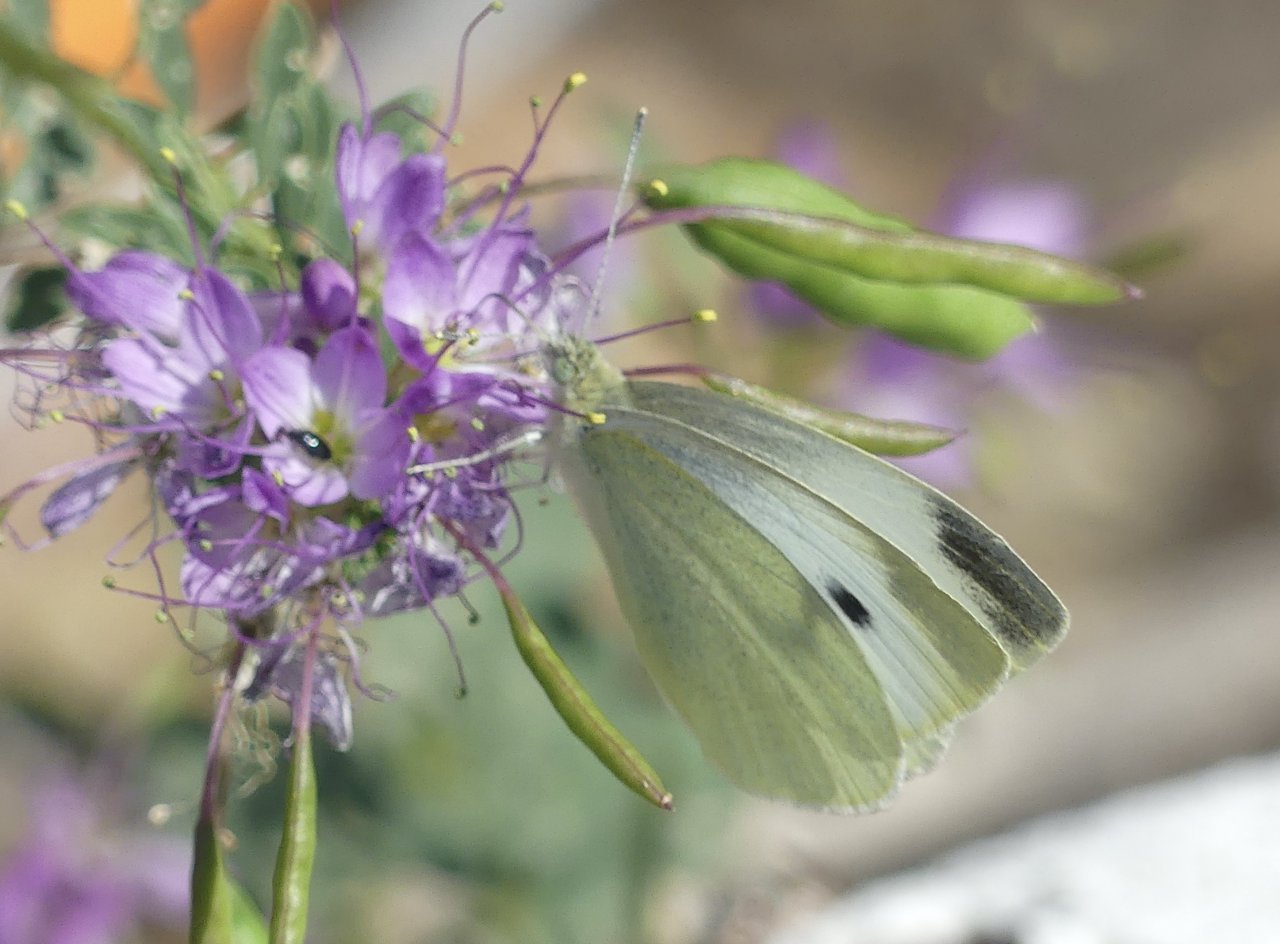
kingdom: Animalia
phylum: Arthropoda
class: Insecta
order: Lepidoptera
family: Pieridae
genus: Pieris
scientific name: Pieris rapae
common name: Cabbage White
